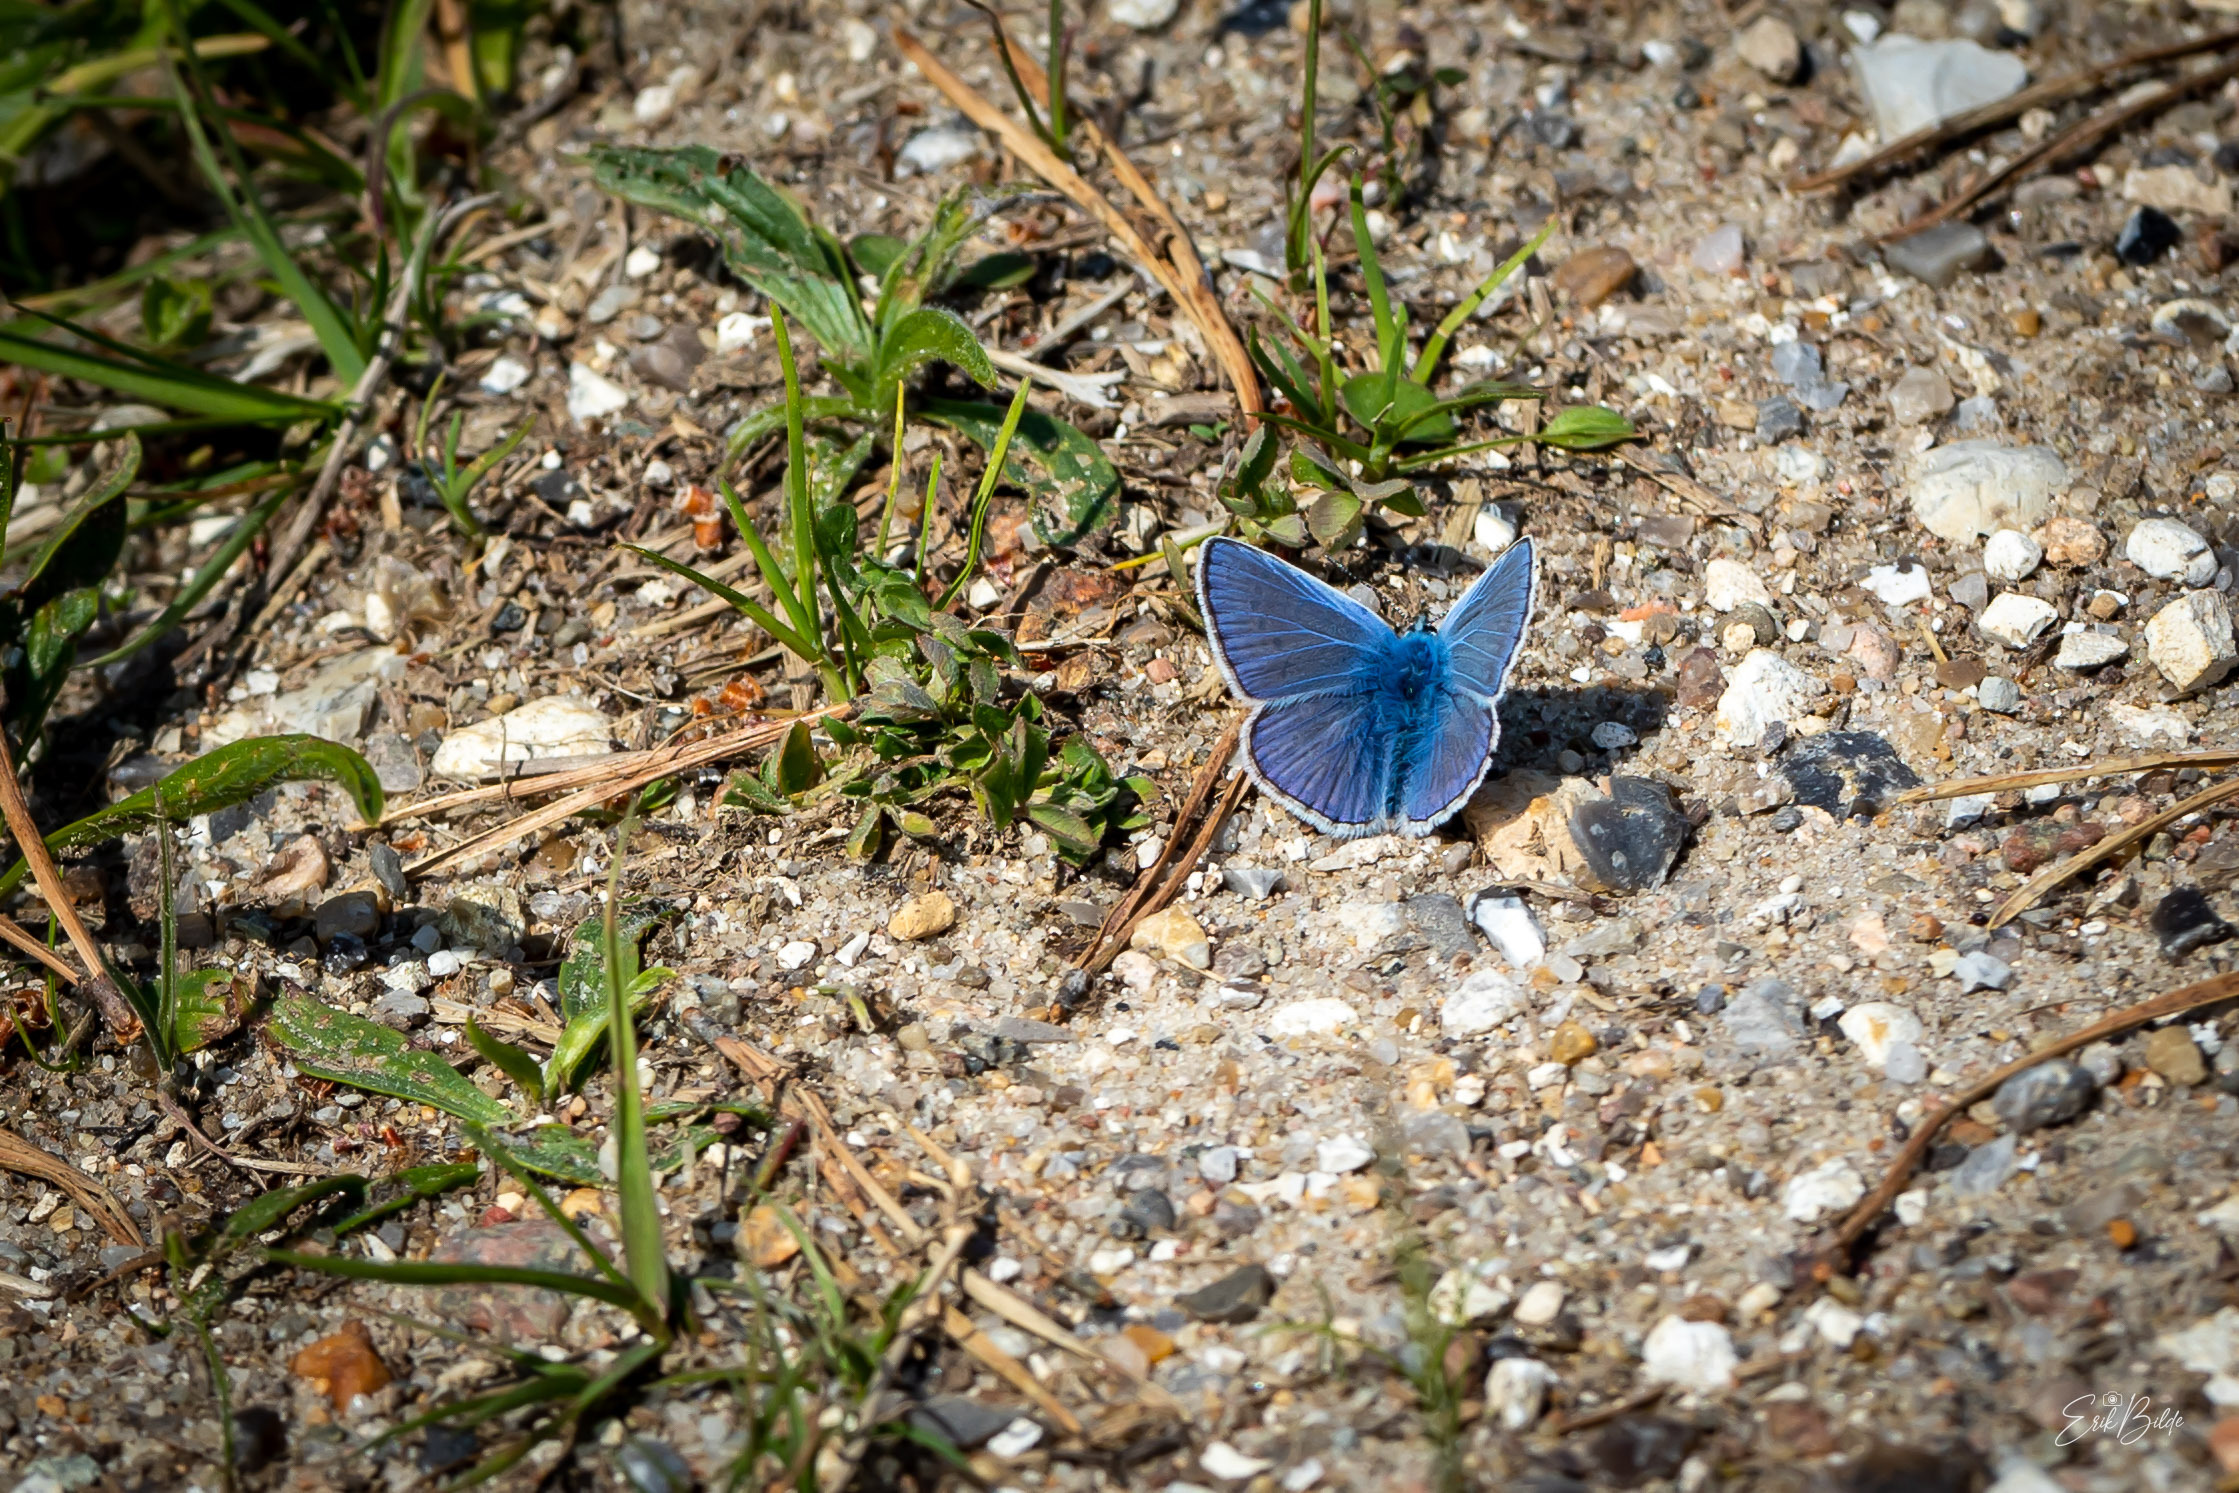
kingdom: Animalia
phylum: Arthropoda
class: Insecta
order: Lepidoptera
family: Lycaenidae
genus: Polyommatus
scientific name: Polyommatus icarus
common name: Almindelig blåfugl
